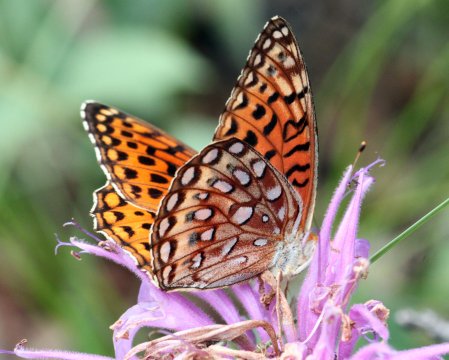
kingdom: Animalia
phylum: Arthropoda
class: Insecta
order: Lepidoptera
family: Nymphalidae
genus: Speyeria
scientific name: Speyeria aphrodite
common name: Aphrodite Fritillary
